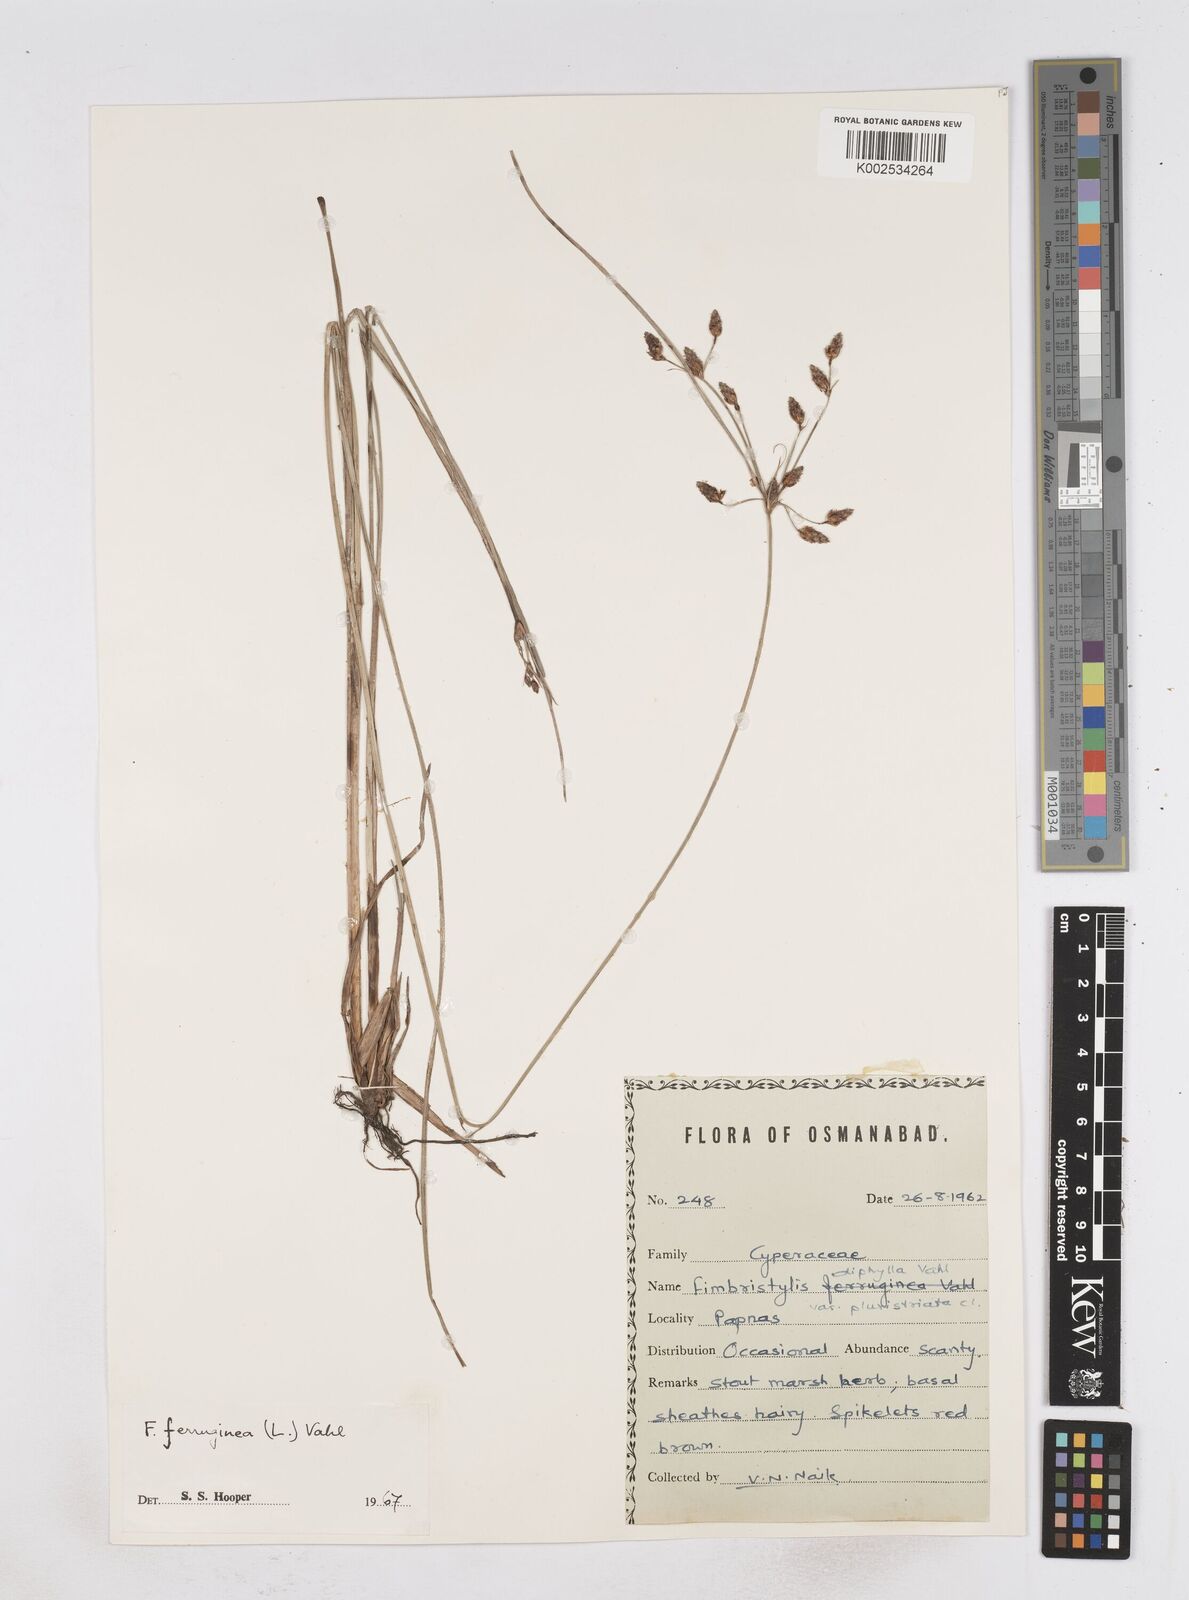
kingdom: Plantae
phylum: Tracheophyta
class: Liliopsida
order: Poales
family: Cyperaceae
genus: Fimbristylis
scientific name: Fimbristylis ferruginea
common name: West indian fimbry
